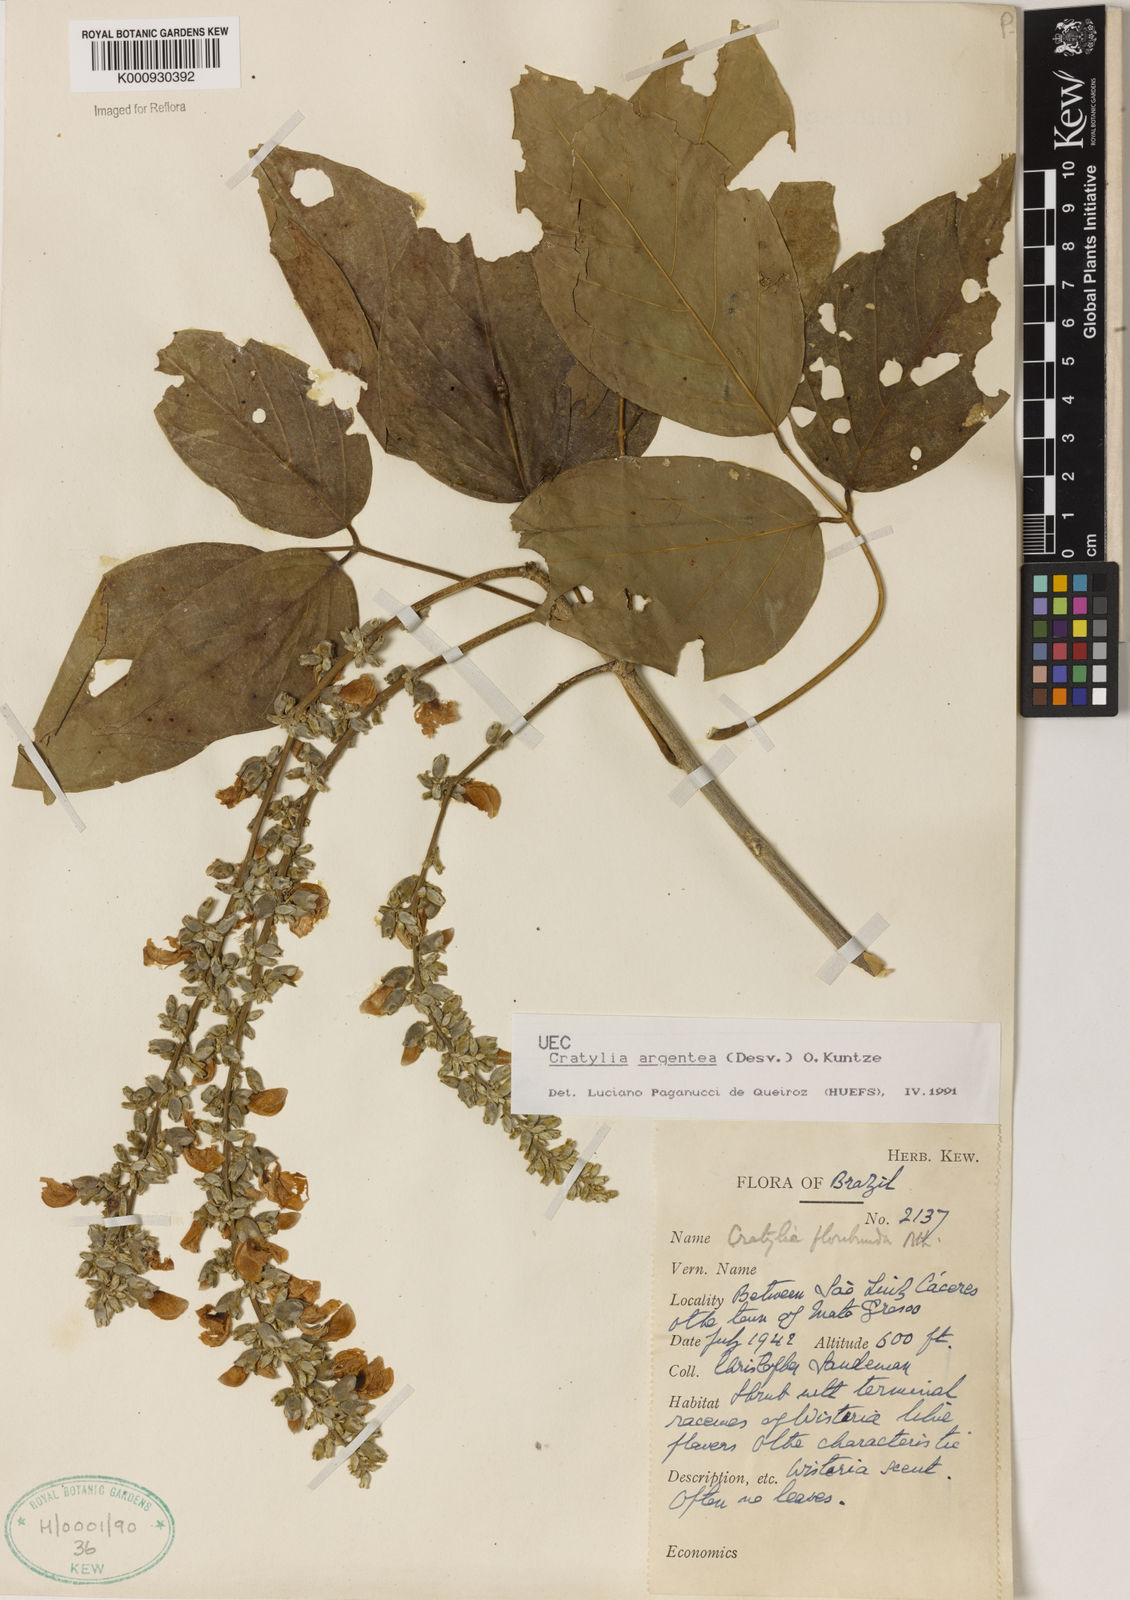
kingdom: Plantae
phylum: Tracheophyta
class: Magnoliopsida
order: Fabales
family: Fabaceae
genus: Cratylia
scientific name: Cratylia argentea
